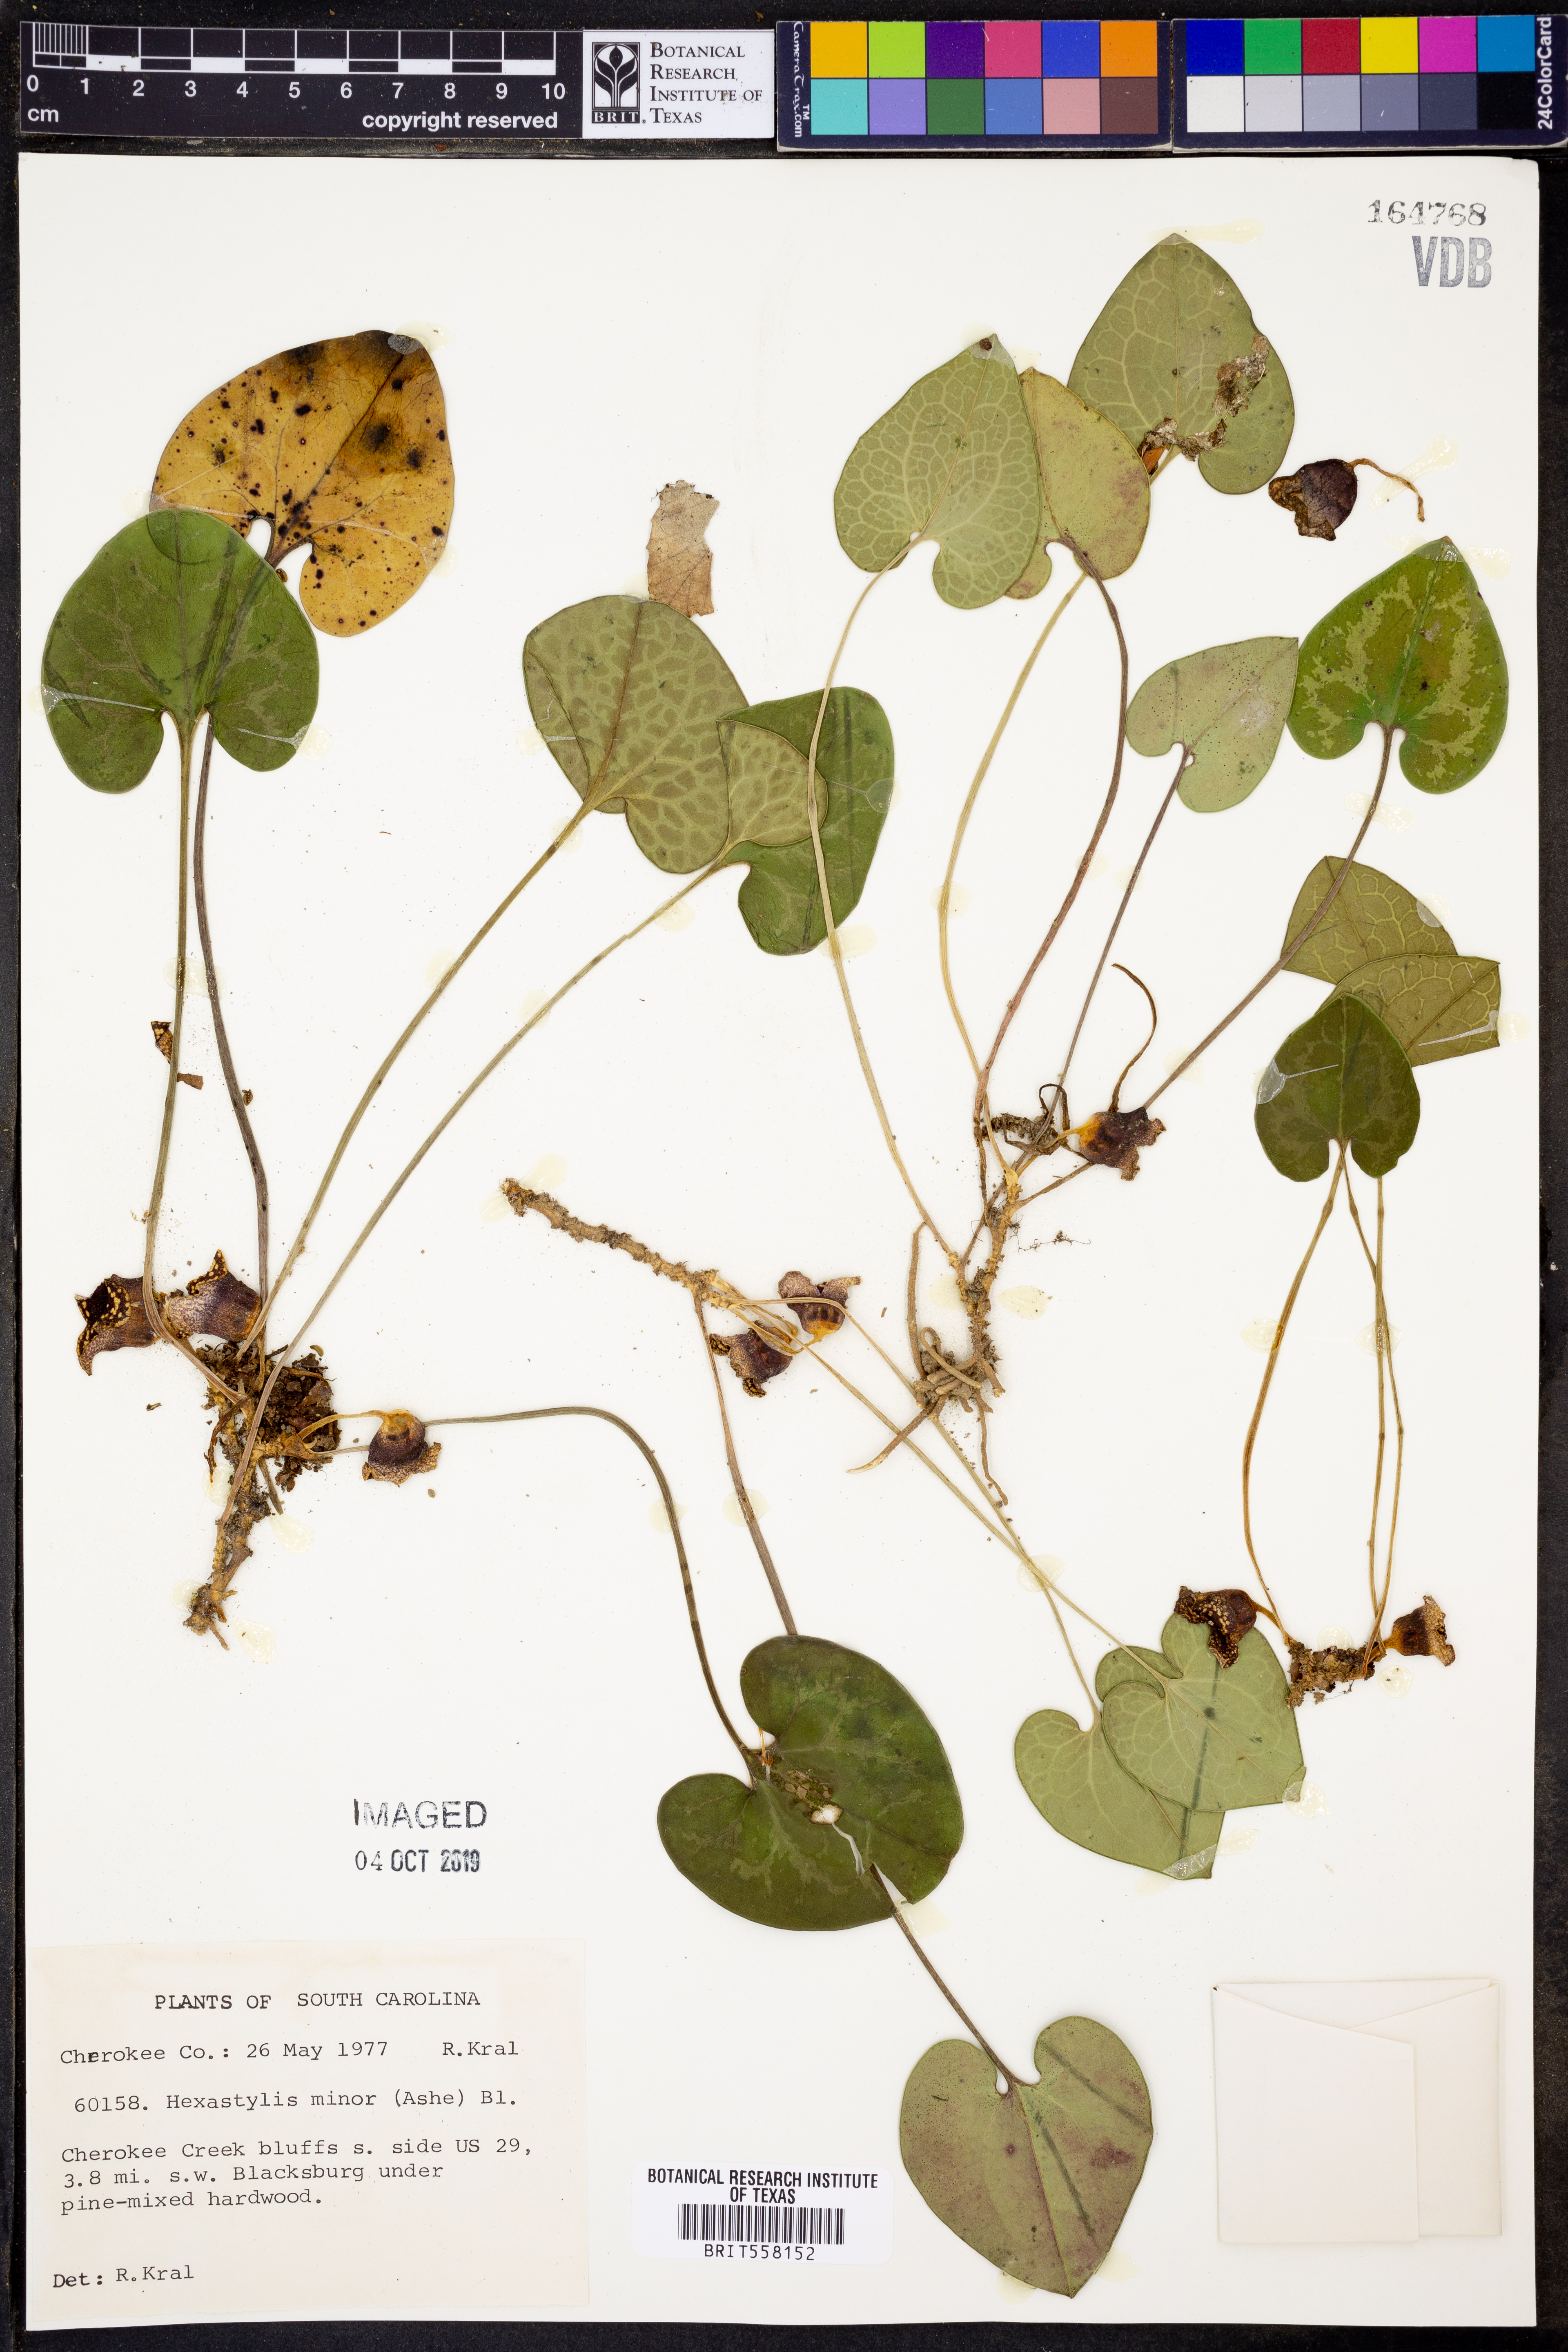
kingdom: Plantae
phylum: Tracheophyta
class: Magnoliopsida
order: Piperales
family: Aristolochiaceae
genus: Hexastylis
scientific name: Hexastylis minor
